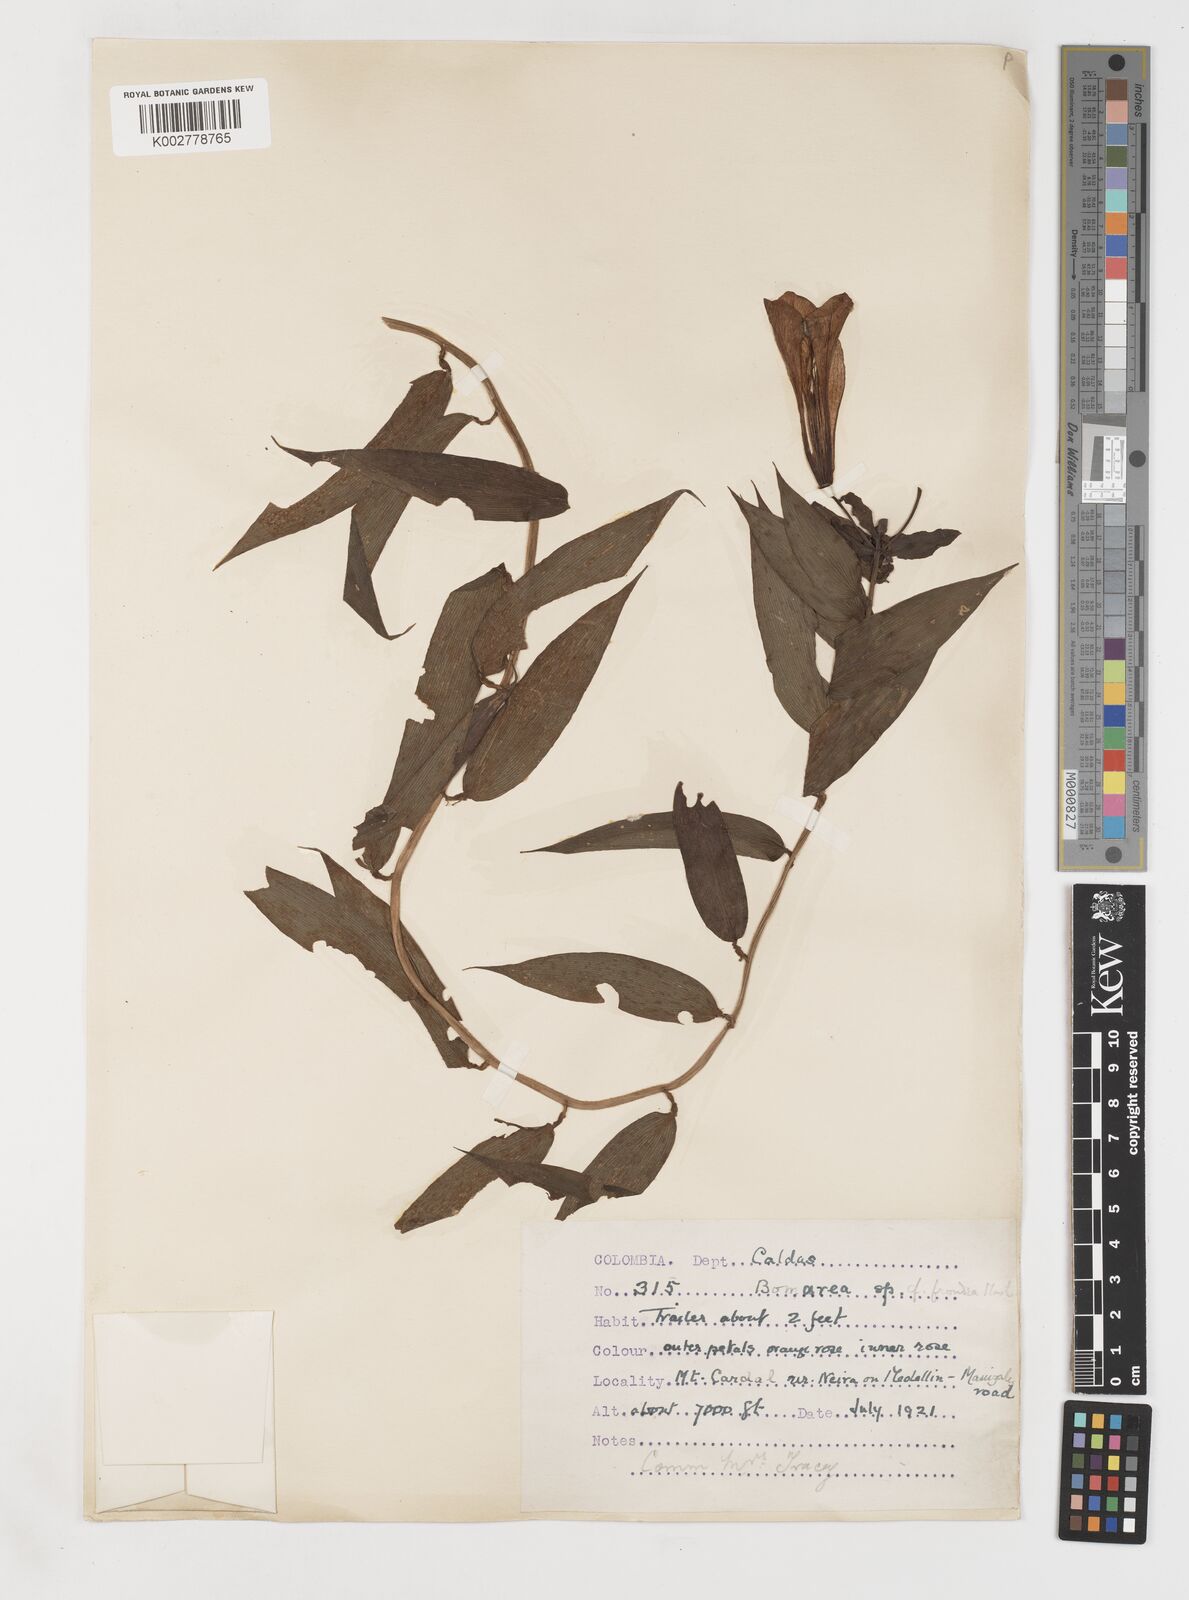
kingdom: Plantae
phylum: Tracheophyta
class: Liliopsida
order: Liliales
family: Alstroemeriaceae
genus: Bomarea
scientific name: Bomarea patinii
